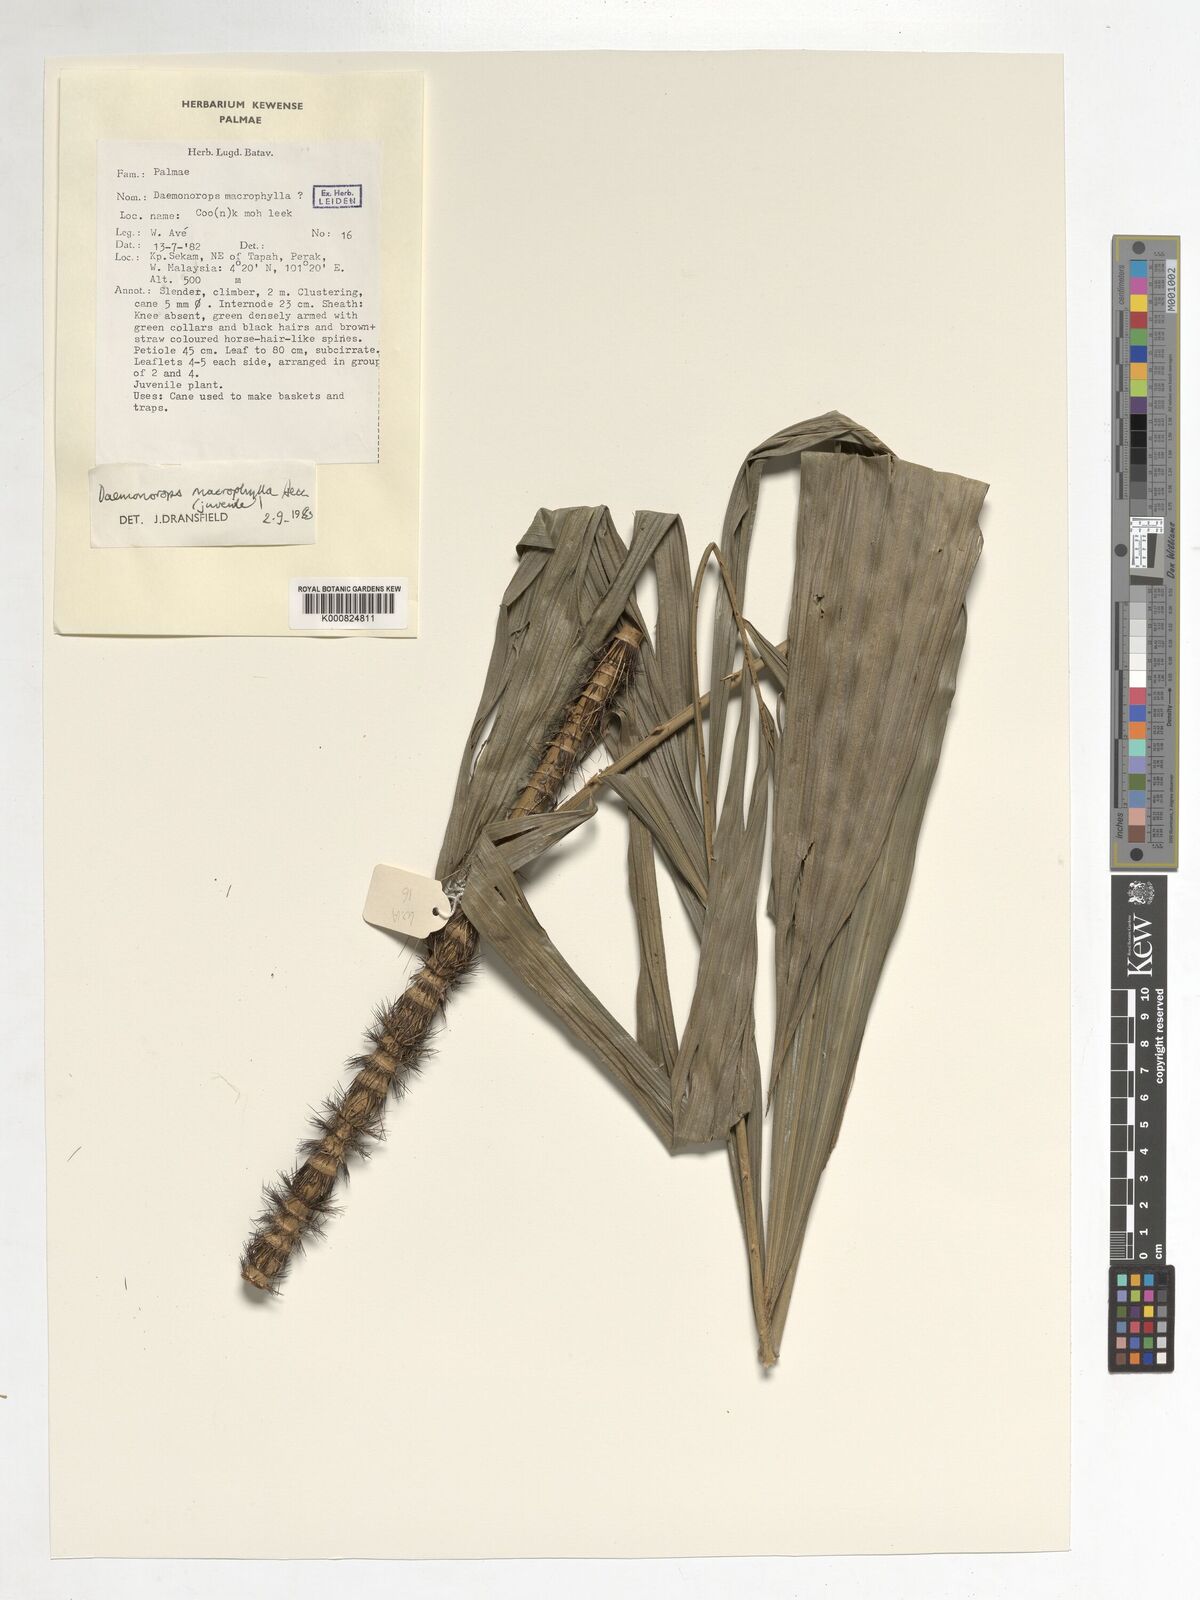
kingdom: Plantae
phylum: Tracheophyta
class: Liliopsida
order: Arecales
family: Arecaceae
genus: Calamus
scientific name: Calamus crinitus
